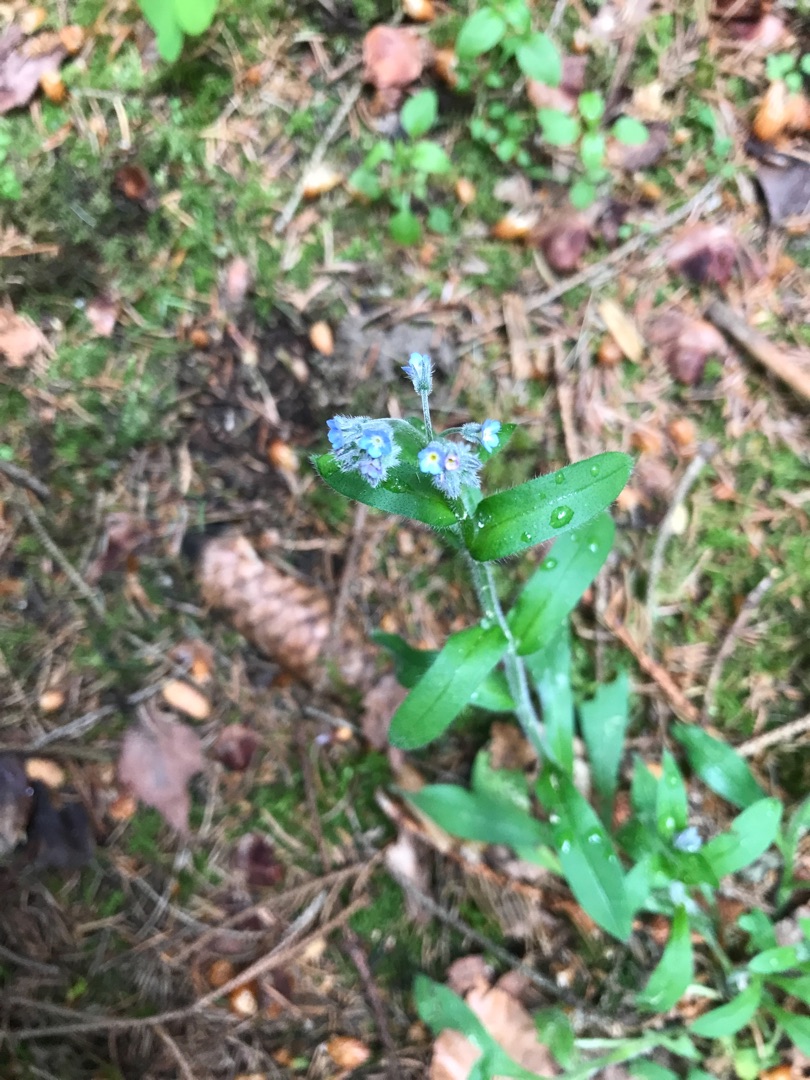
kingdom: Plantae
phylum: Tracheophyta
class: Magnoliopsida
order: Boraginales
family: Boraginaceae
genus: Myosotis
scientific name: Myosotis arvensis
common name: Mark-forglemmigej
